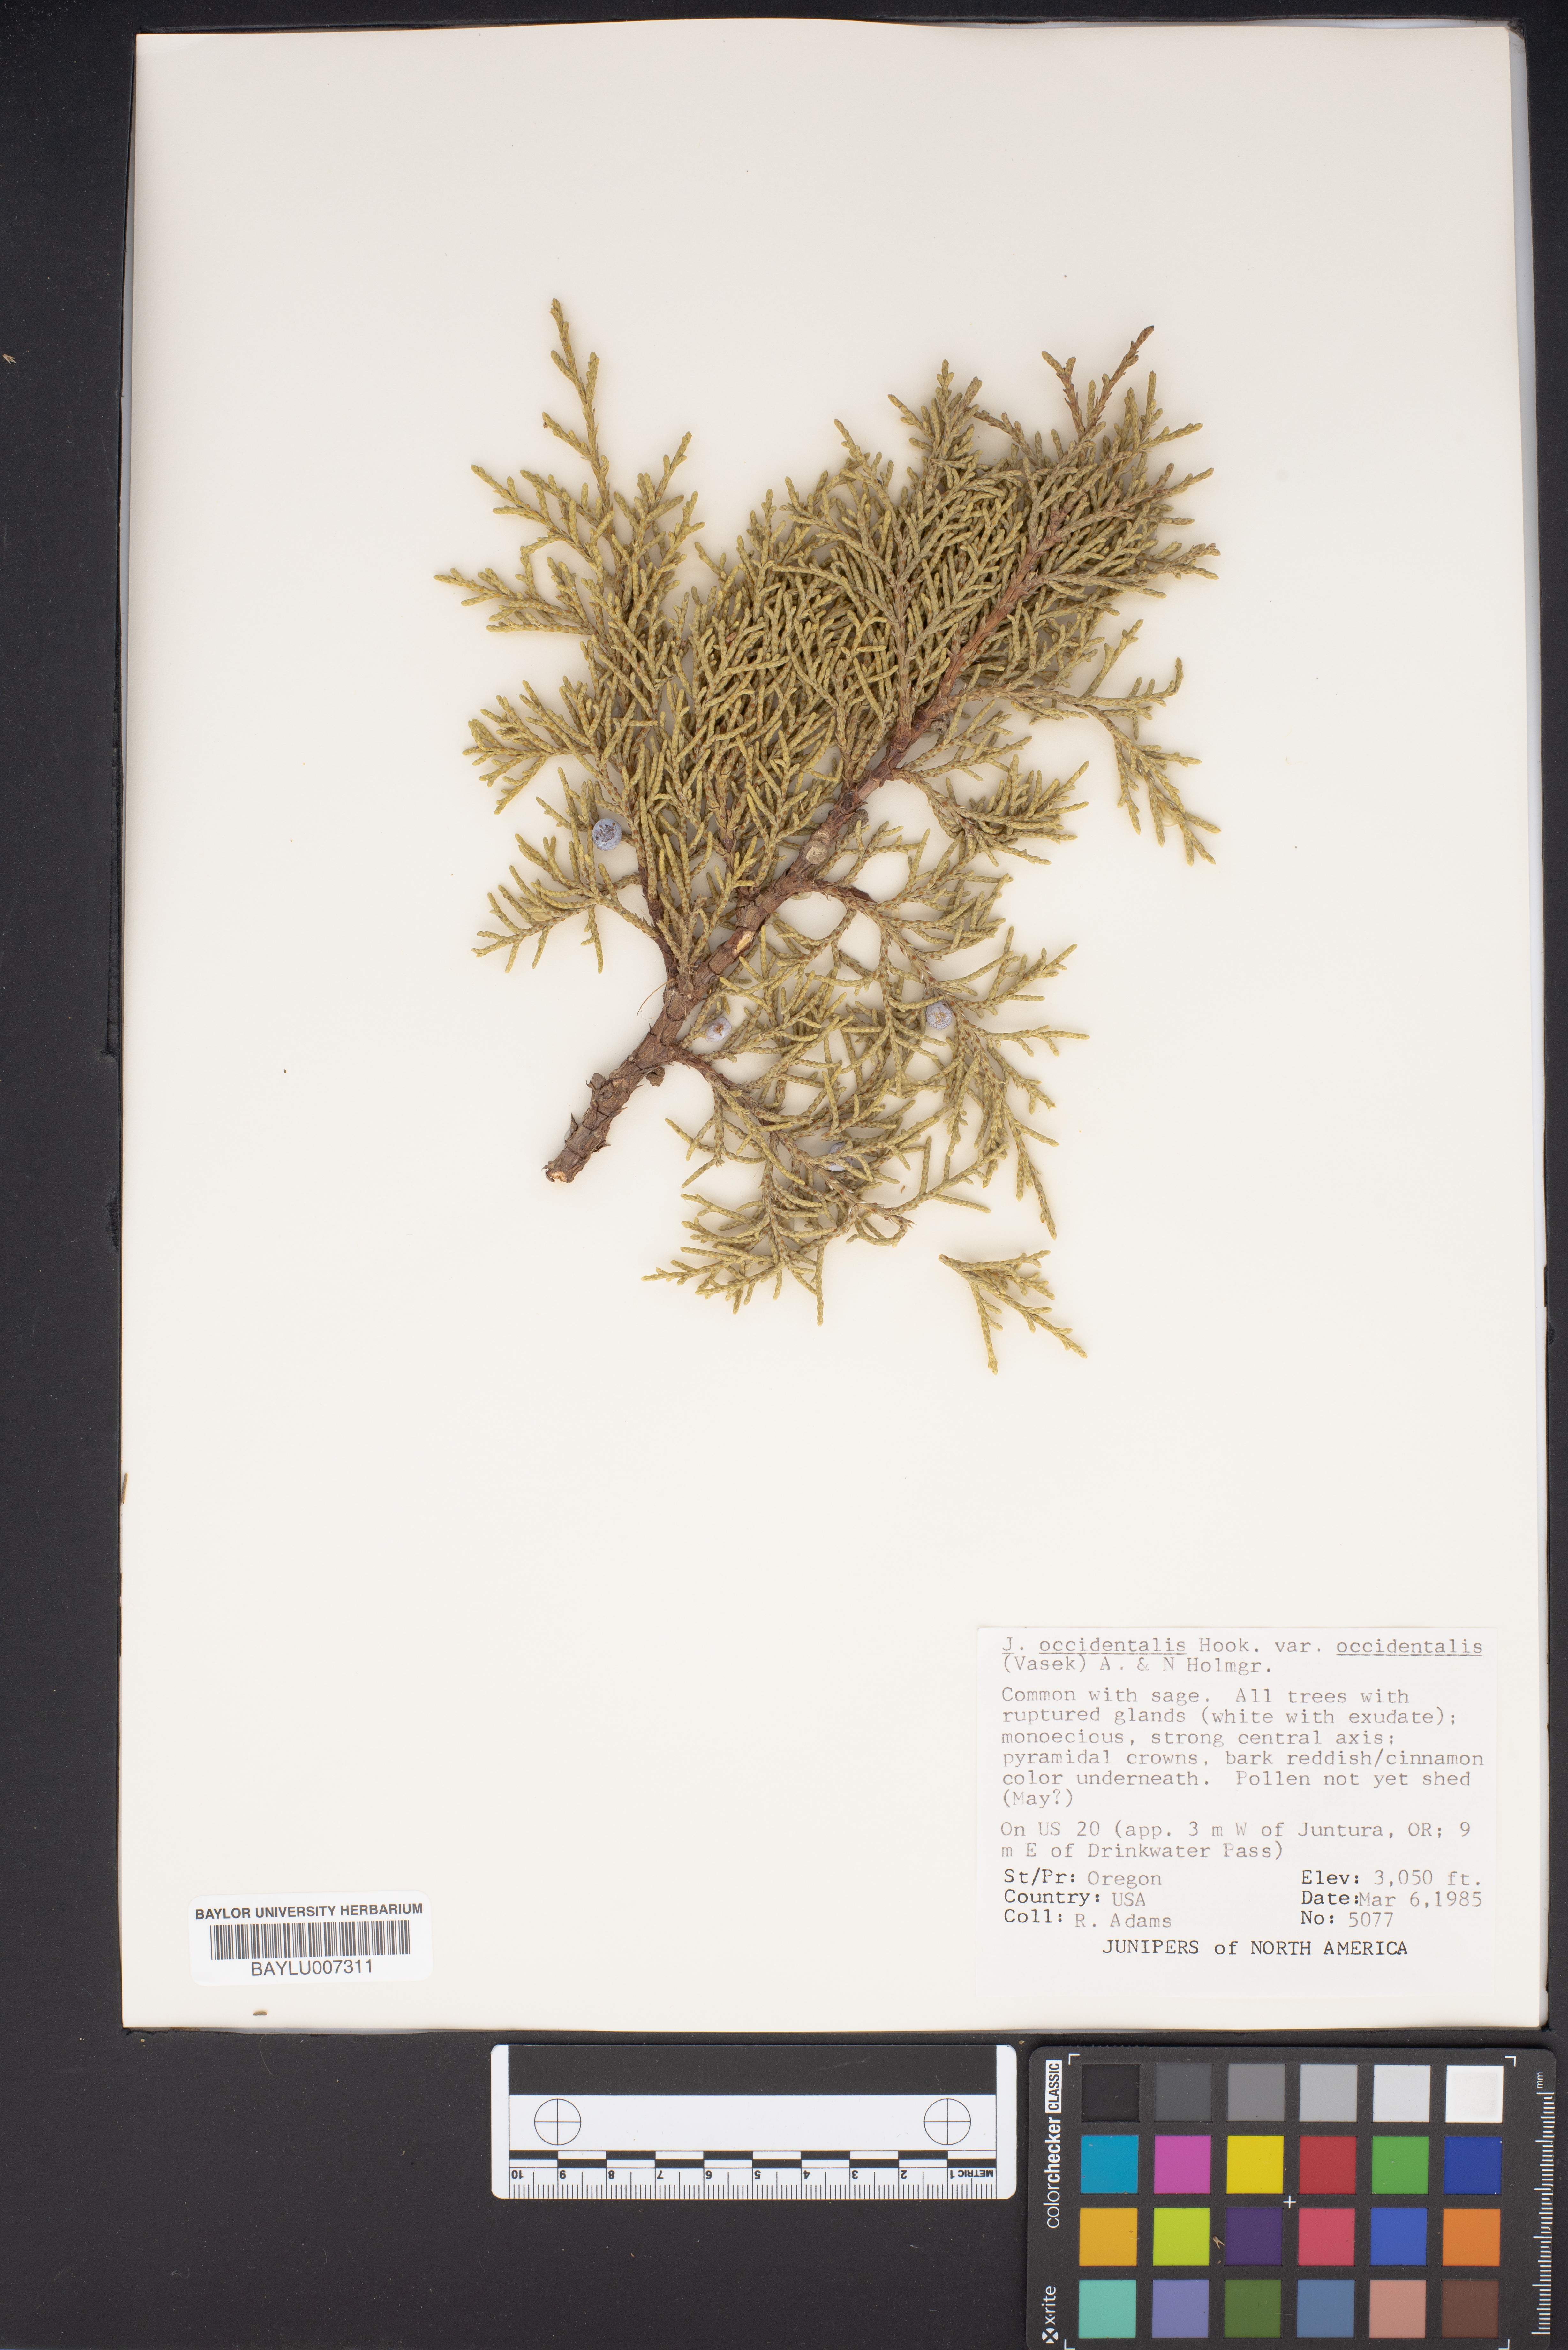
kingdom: Plantae
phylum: Tracheophyta
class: Pinopsida
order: Pinales
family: Cupressaceae
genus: Juniperus
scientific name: Juniperus occidentalis
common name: Western juniper
